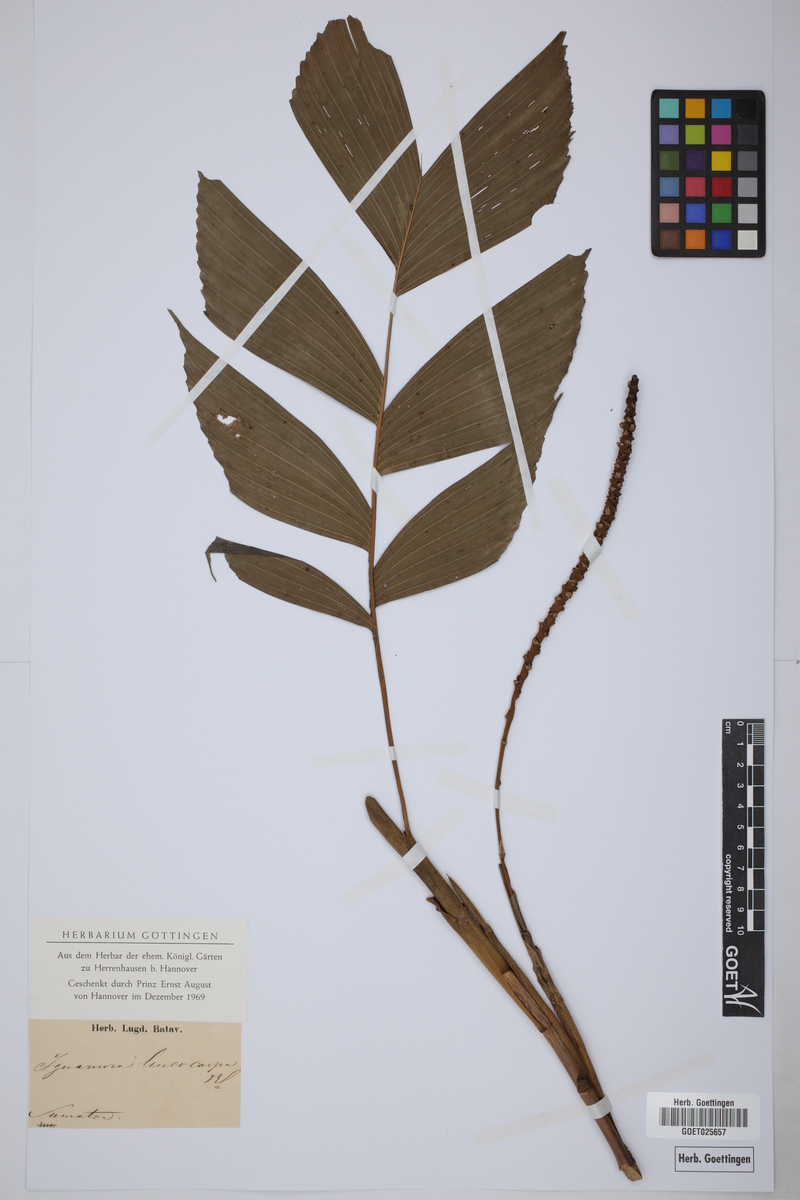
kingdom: Plantae
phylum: Tracheophyta
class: Liliopsida
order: Arecales
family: Arecaceae
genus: Iguanura
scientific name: Iguanura leucocarpa
